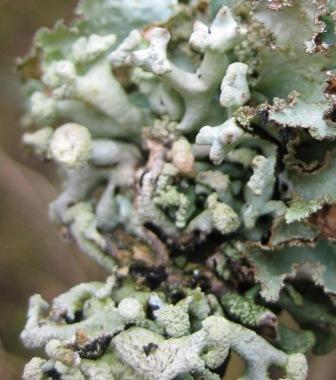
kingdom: Fungi
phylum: Ascomycota
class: Lecanoromycetes
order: Lecanorales
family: Parmeliaceae
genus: Hypogymnia
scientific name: Hypogymnia tubulosa
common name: finger-kvistlav
